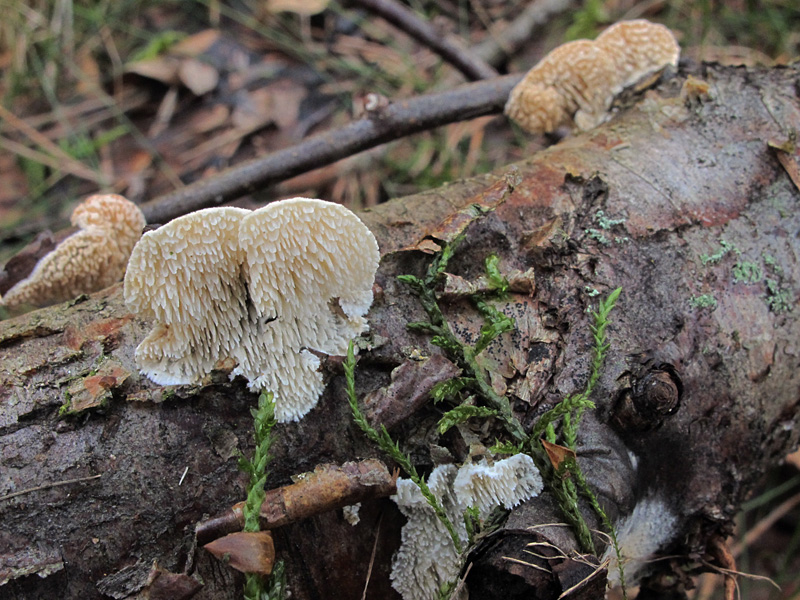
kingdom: Fungi
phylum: Basidiomycota
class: Agaricomycetes
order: Polyporales
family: Steccherinaceae
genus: Steccherinum
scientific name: Steccherinum oreophilum
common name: kvist-skønpig
